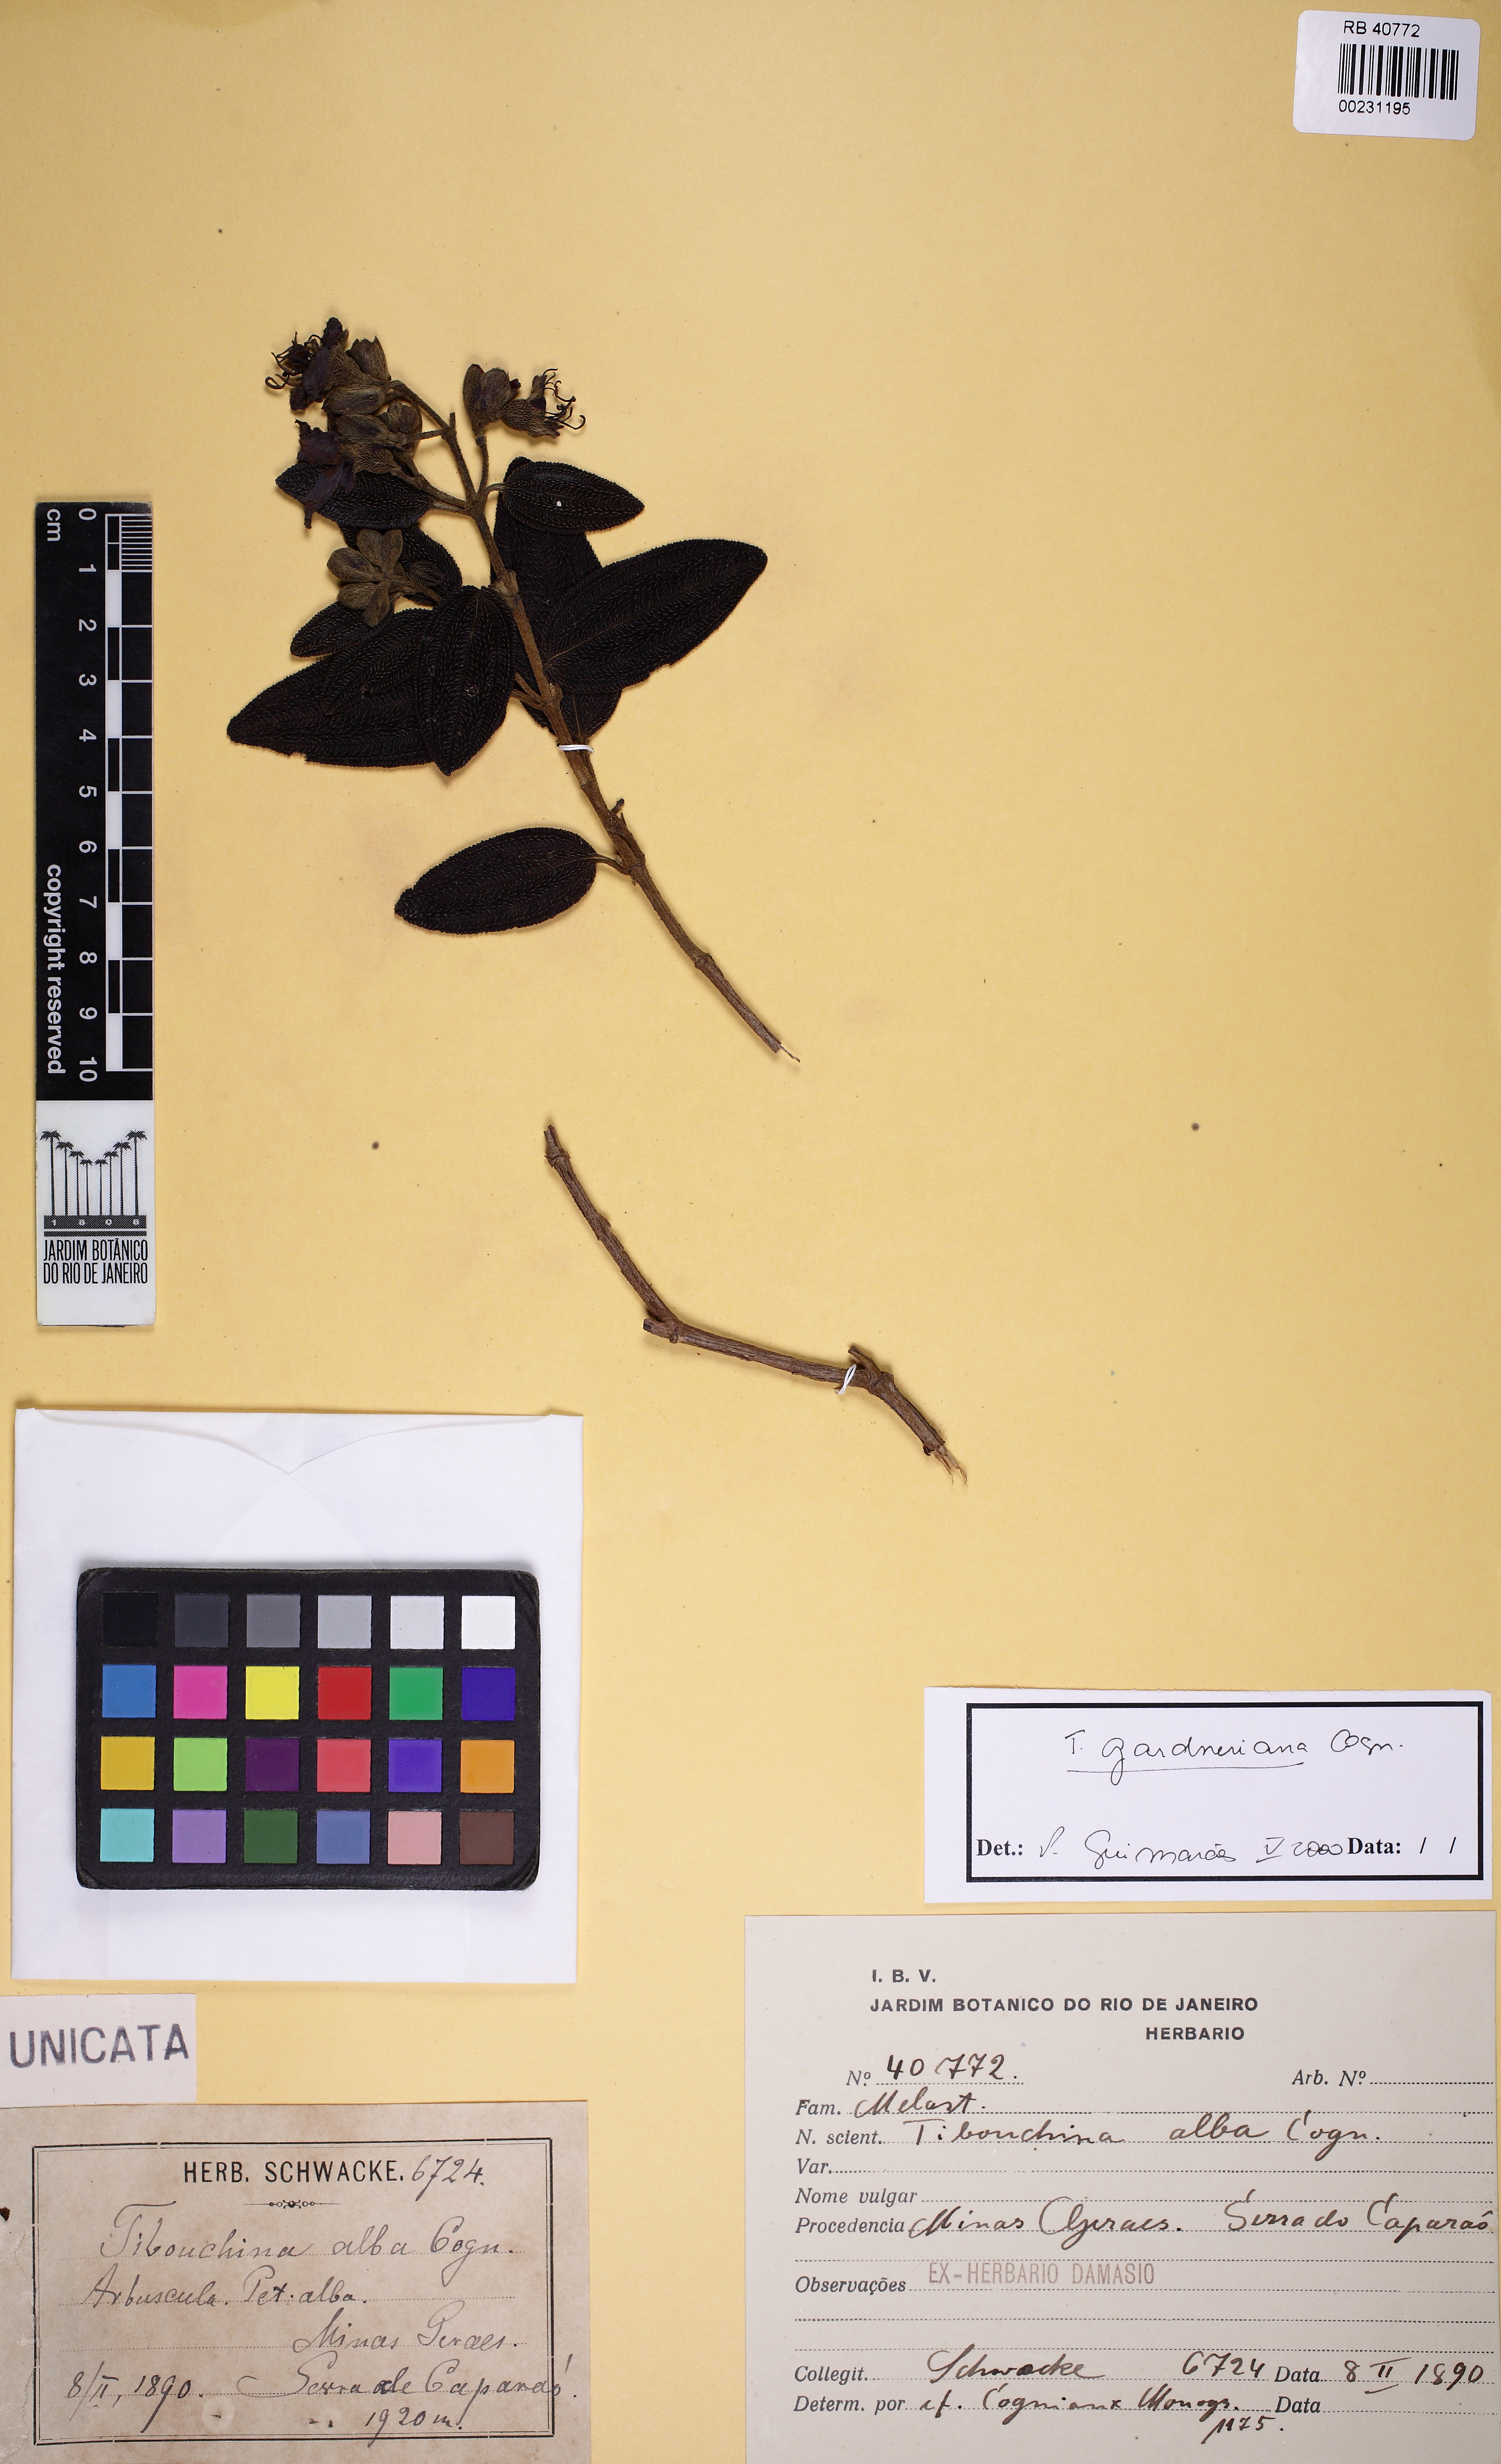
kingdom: Plantae
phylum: Tracheophyta
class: Magnoliopsida
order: Myrtales
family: Melastomataceae
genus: Pleroma
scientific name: Pleroma echinatum
